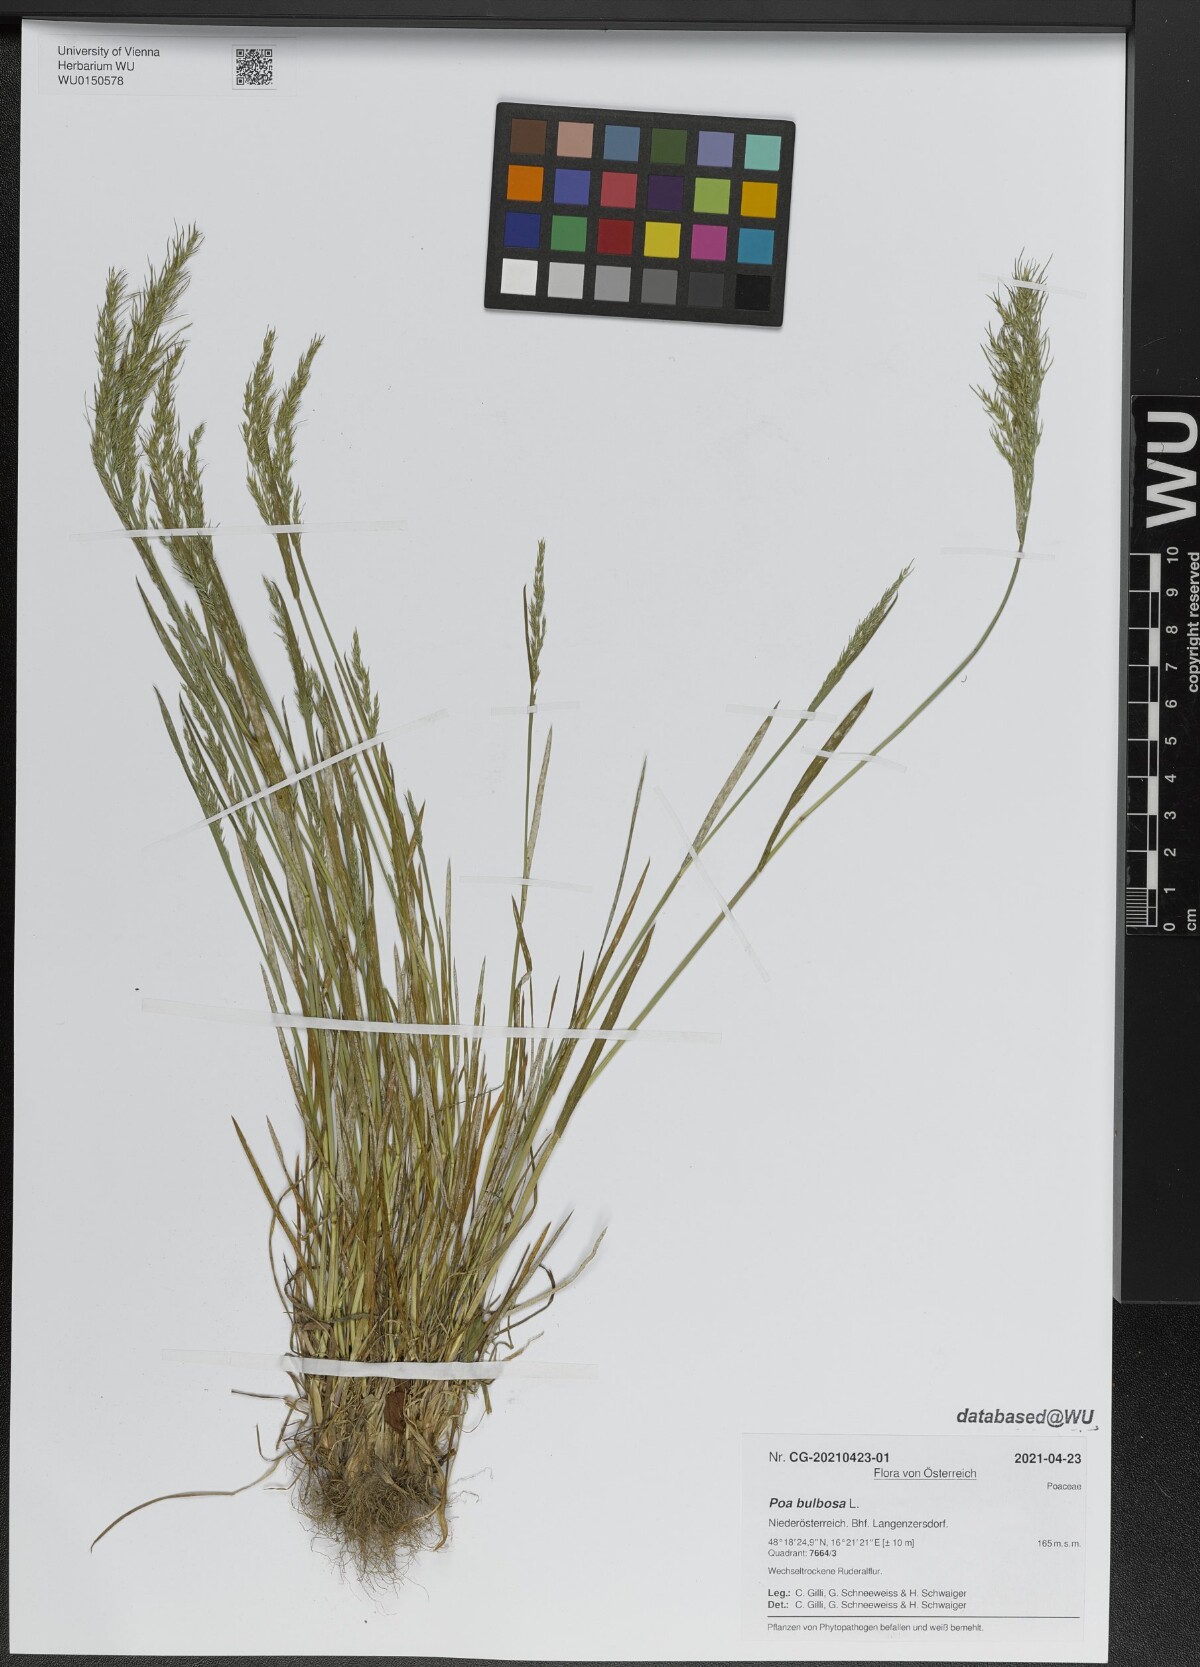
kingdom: Plantae
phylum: Tracheophyta
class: Liliopsida
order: Poales
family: Poaceae
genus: Poa
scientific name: Poa bulbosa
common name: Bulbous bluegrass
